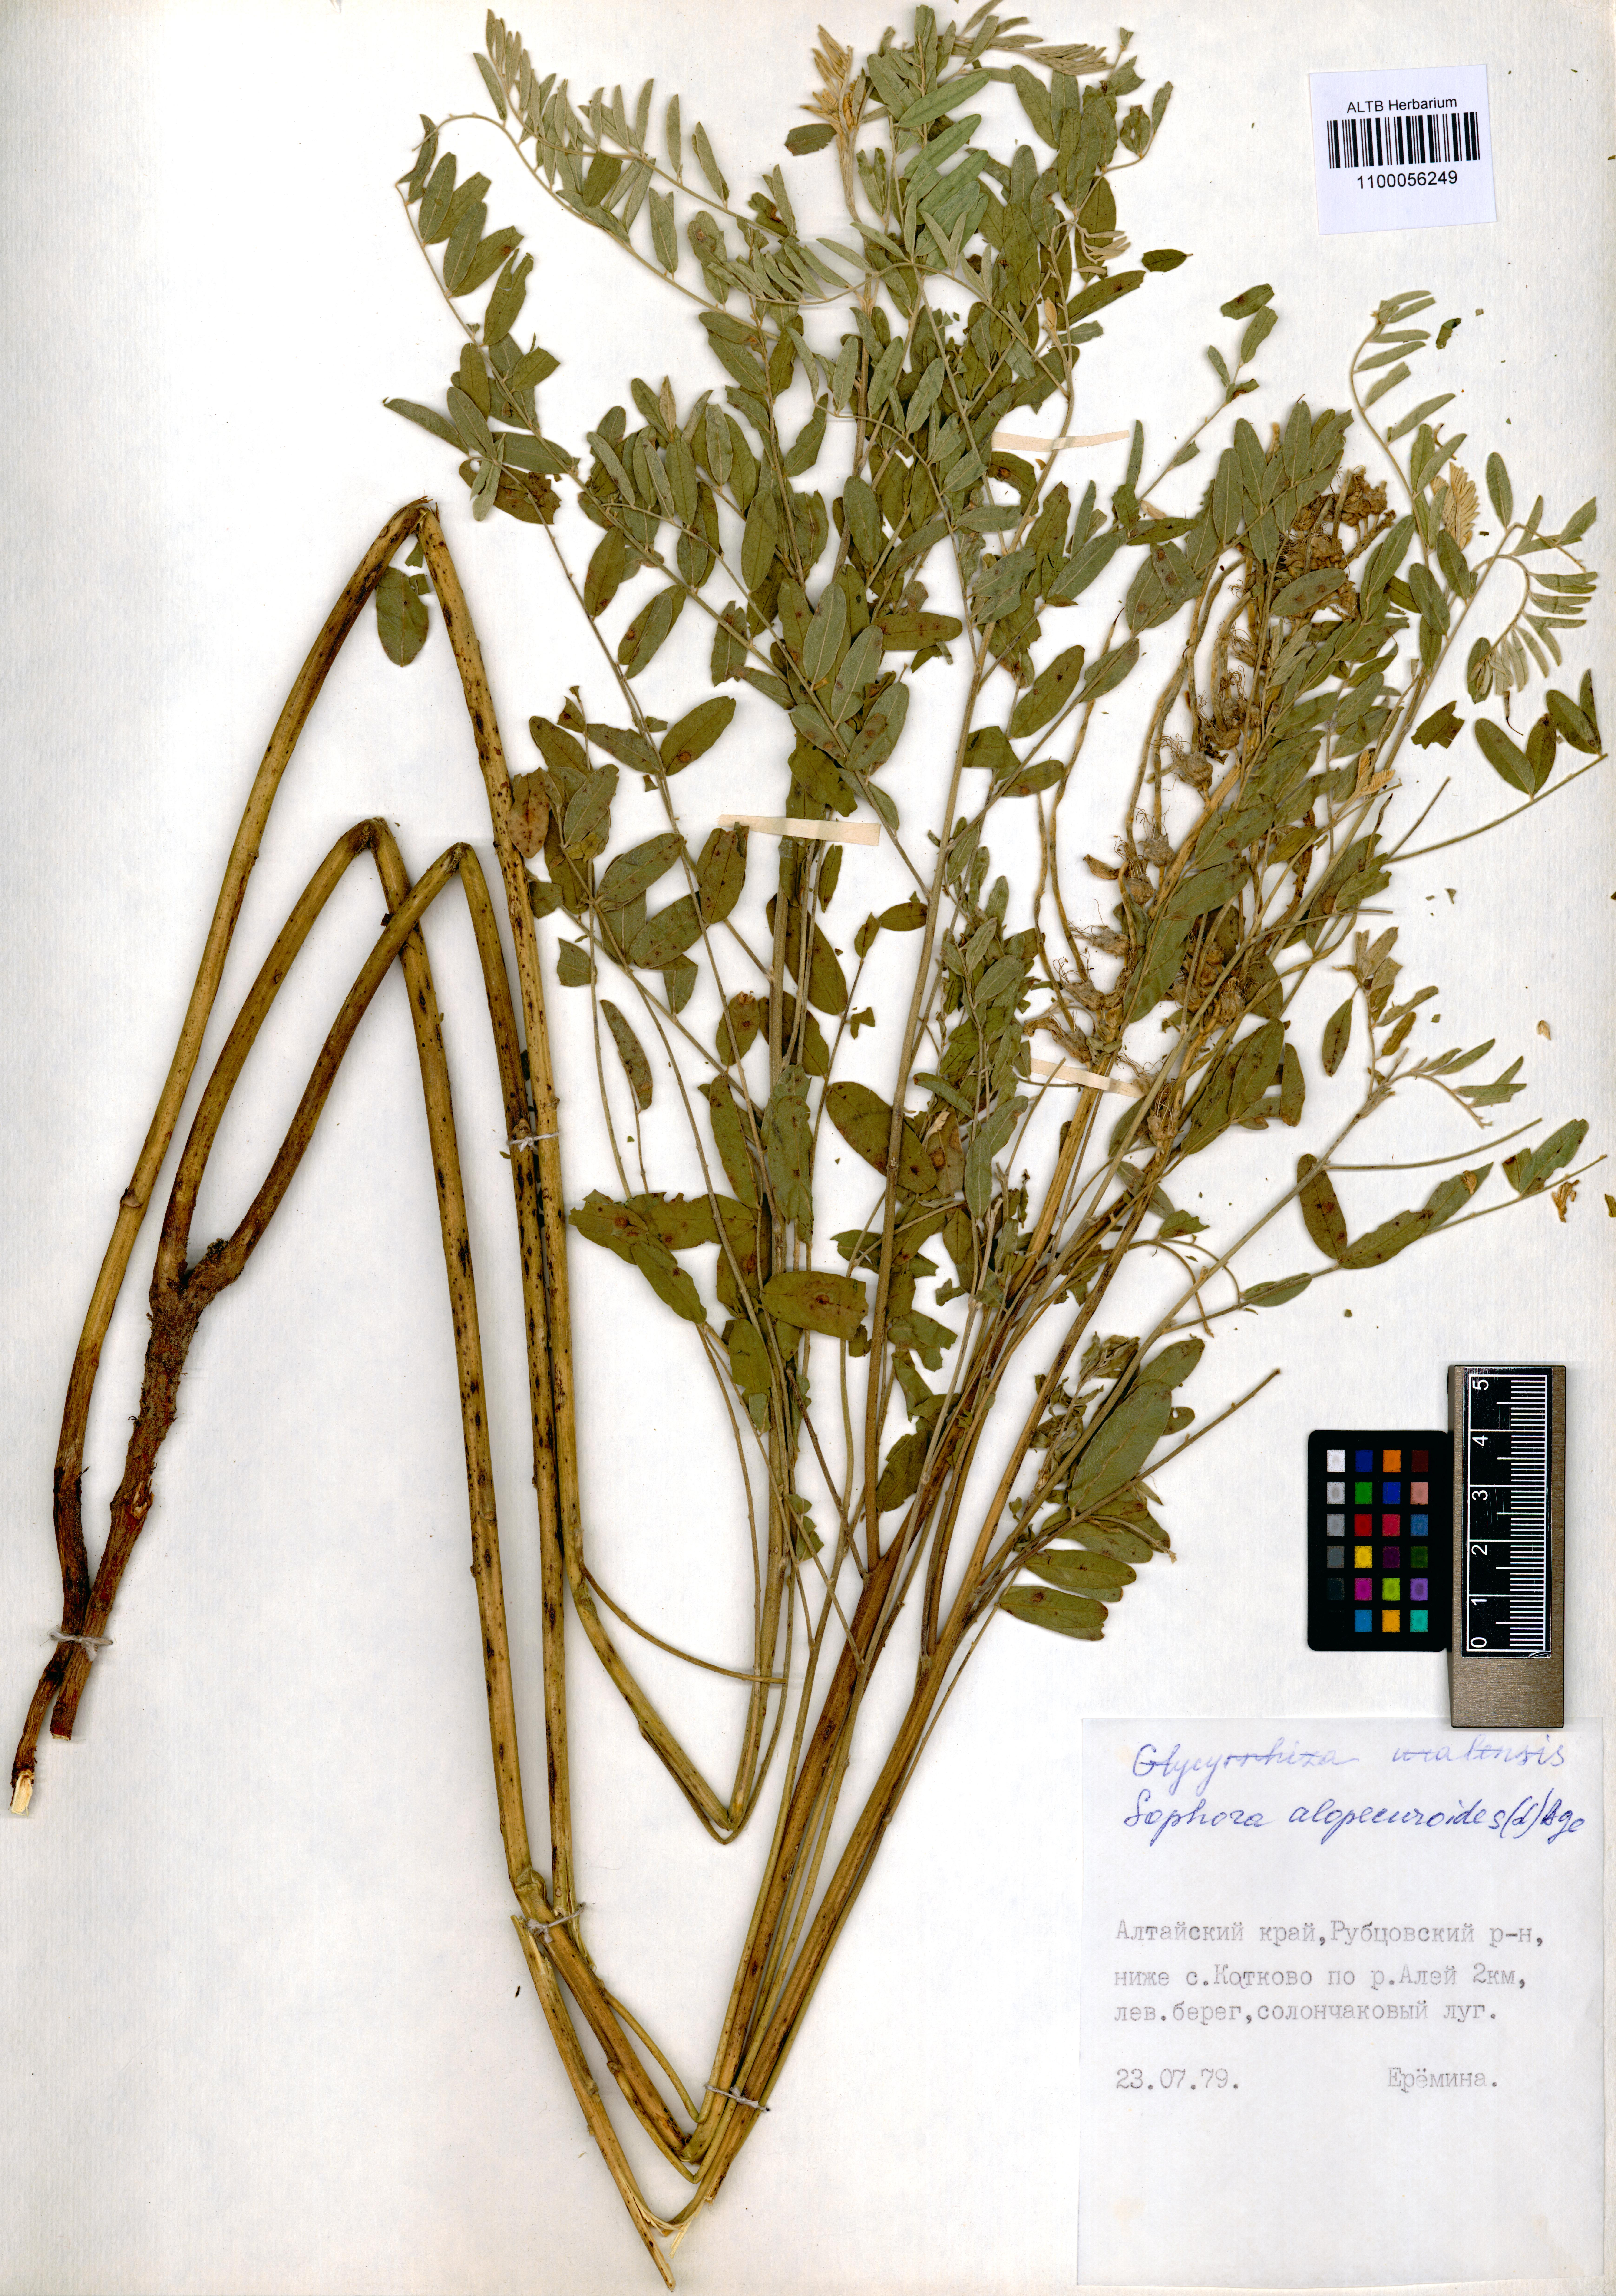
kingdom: Plantae
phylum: Tracheophyta
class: Magnoliopsida
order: Fabales
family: Fabaceae
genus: Sophora
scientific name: Sophora alopecuroides
